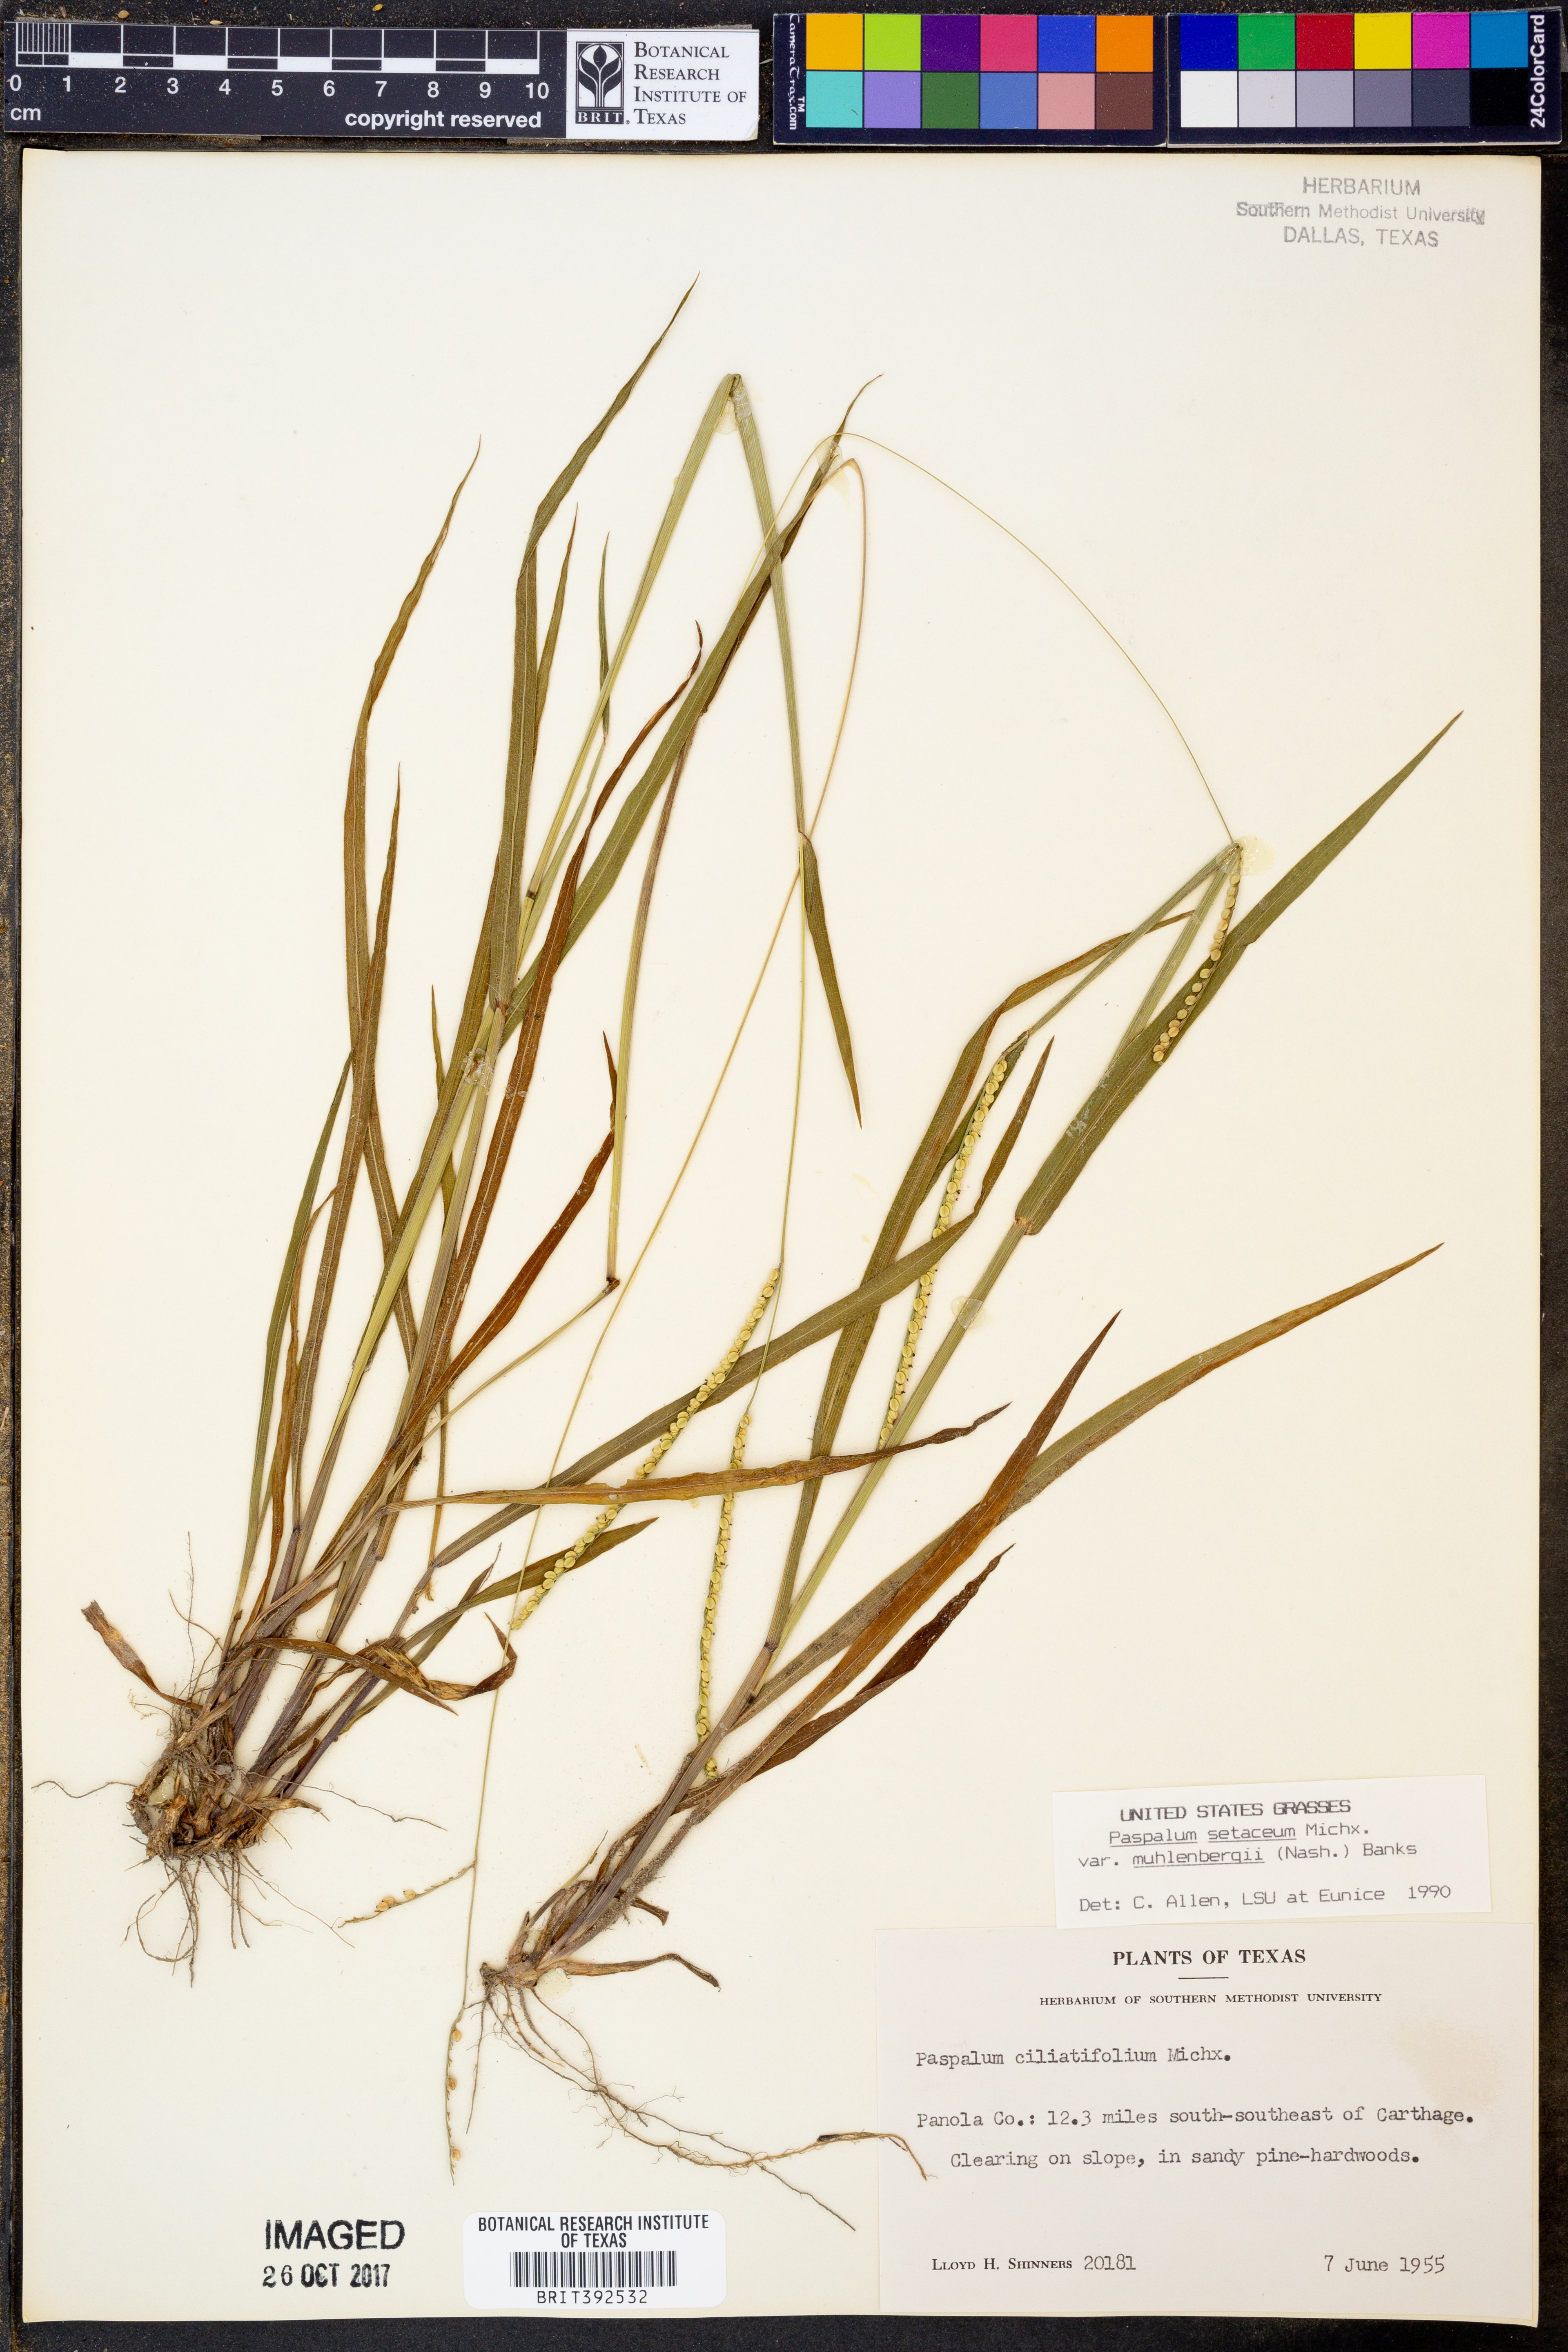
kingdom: Plantae
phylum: Tracheophyta
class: Liliopsida
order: Poales
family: Poaceae
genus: Paspalum
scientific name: Paspalum setaceum
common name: Slender paspalum
